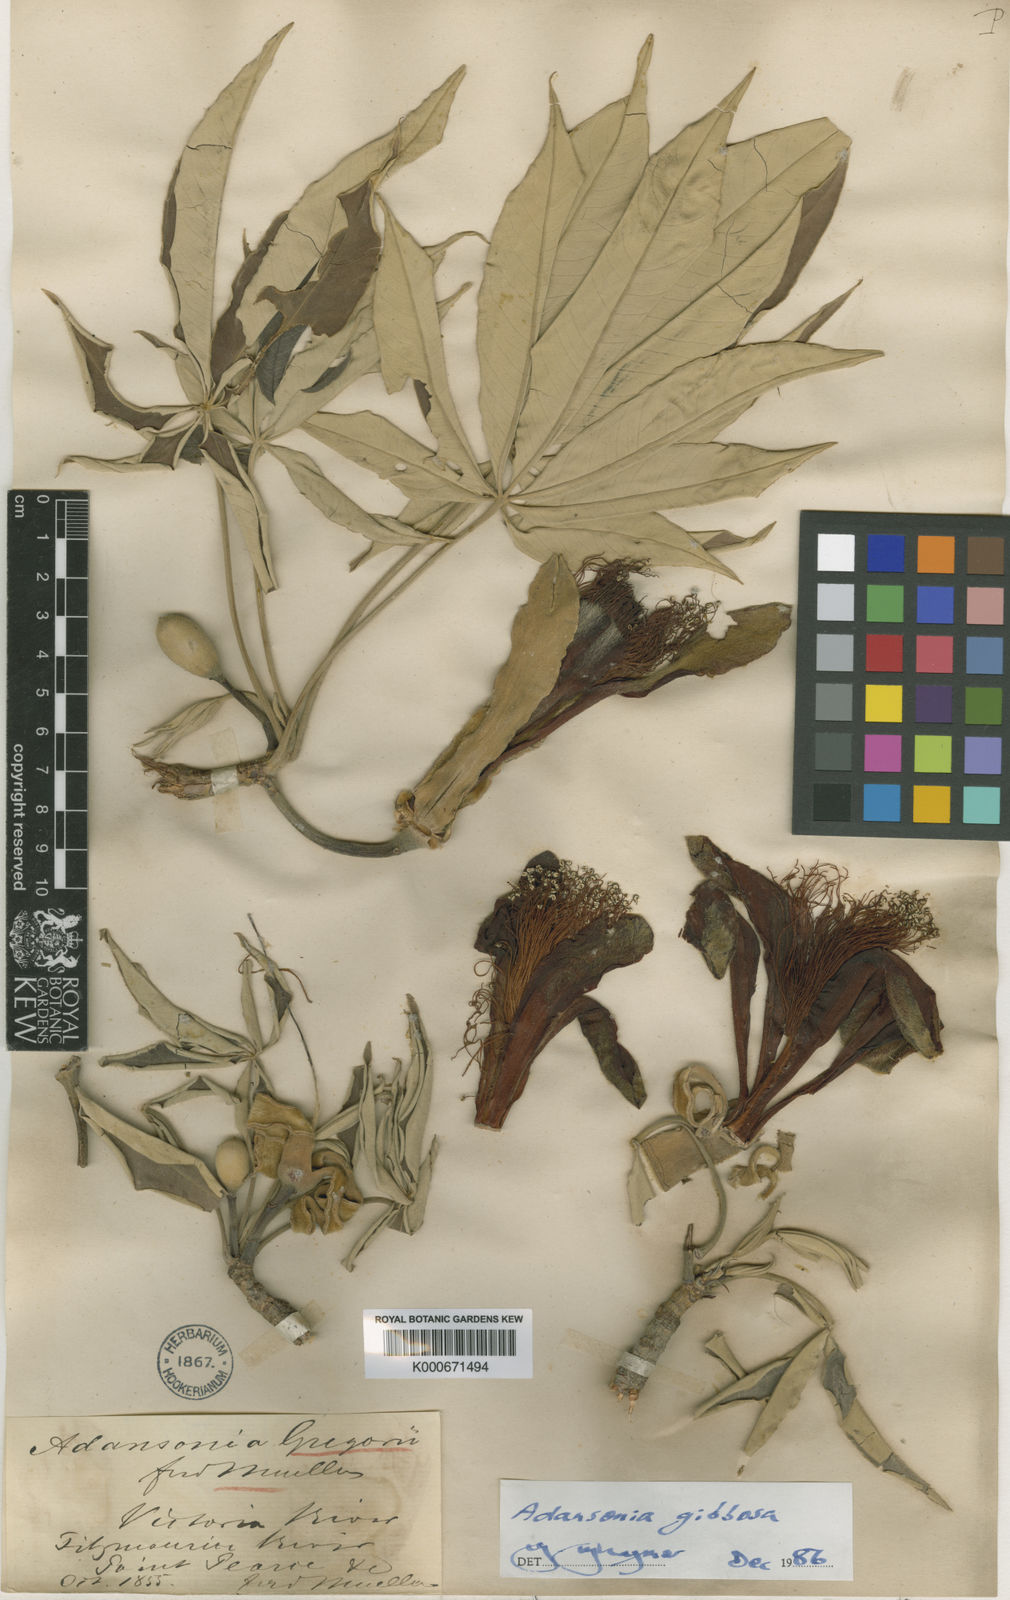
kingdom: Plantae
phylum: Tracheophyta
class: Magnoliopsida
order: Malvales
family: Malvaceae
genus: Adansonia
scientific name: Adansonia gregorii
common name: Australian baobab
